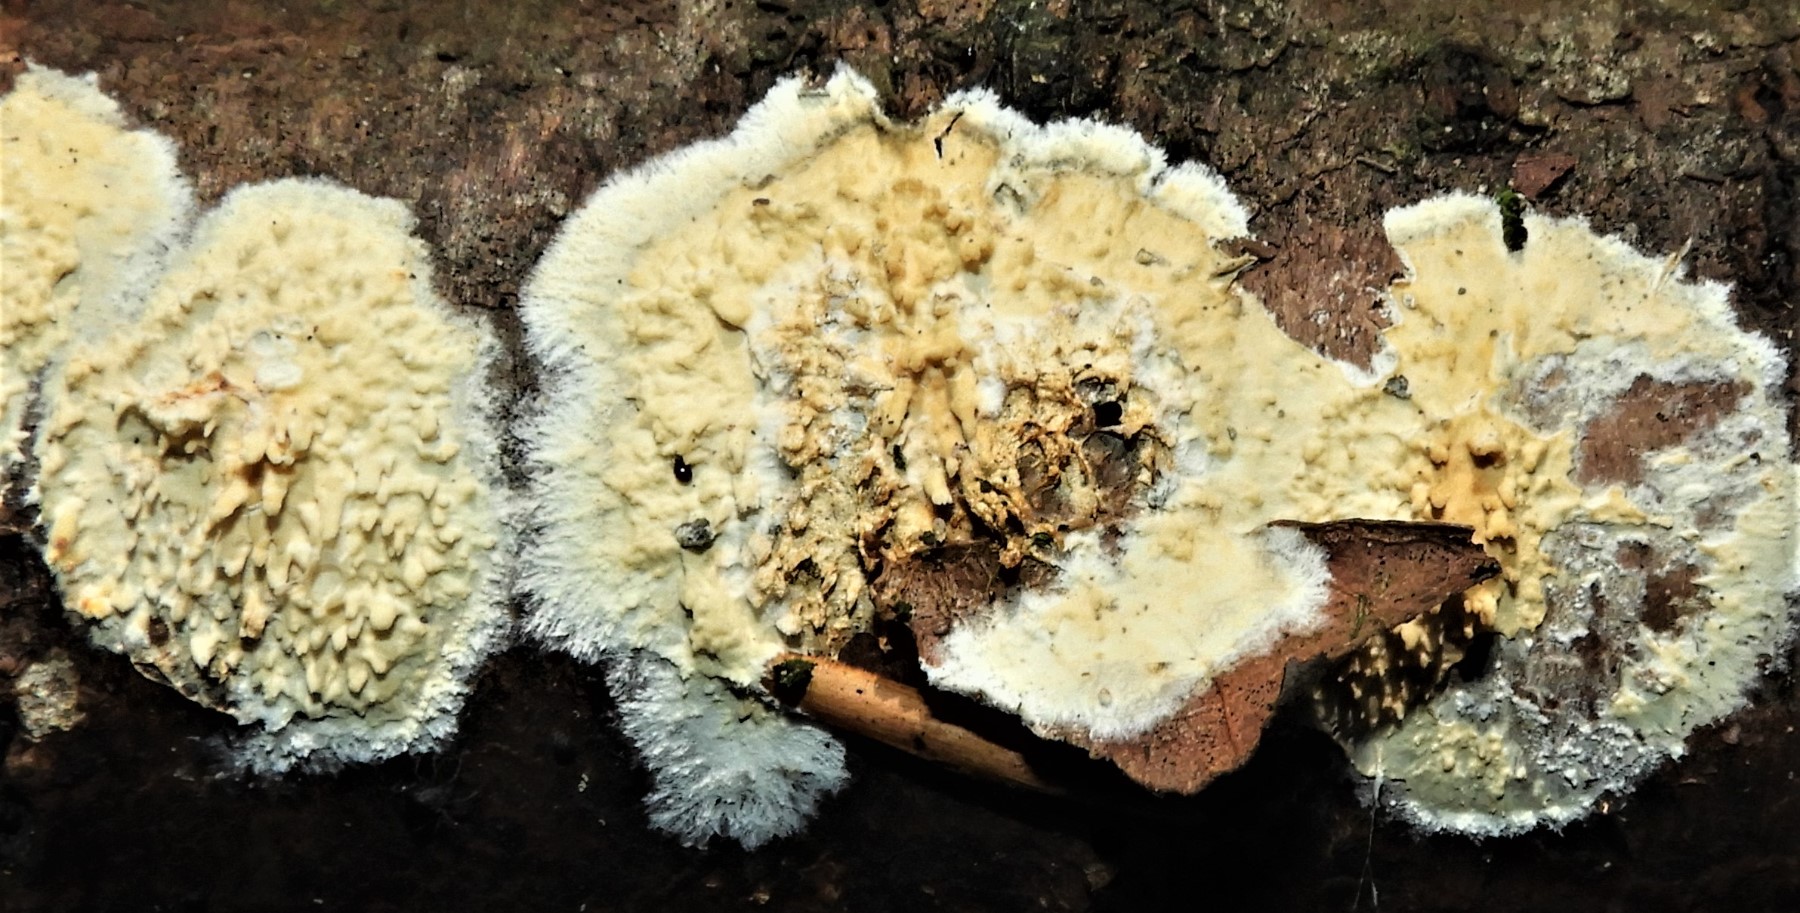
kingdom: Fungi
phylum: Basidiomycota
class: Agaricomycetes
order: Hymenochaetales
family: Schizoporaceae
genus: Xylodon
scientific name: Xylodon radula
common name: grovtandet kalkskind
